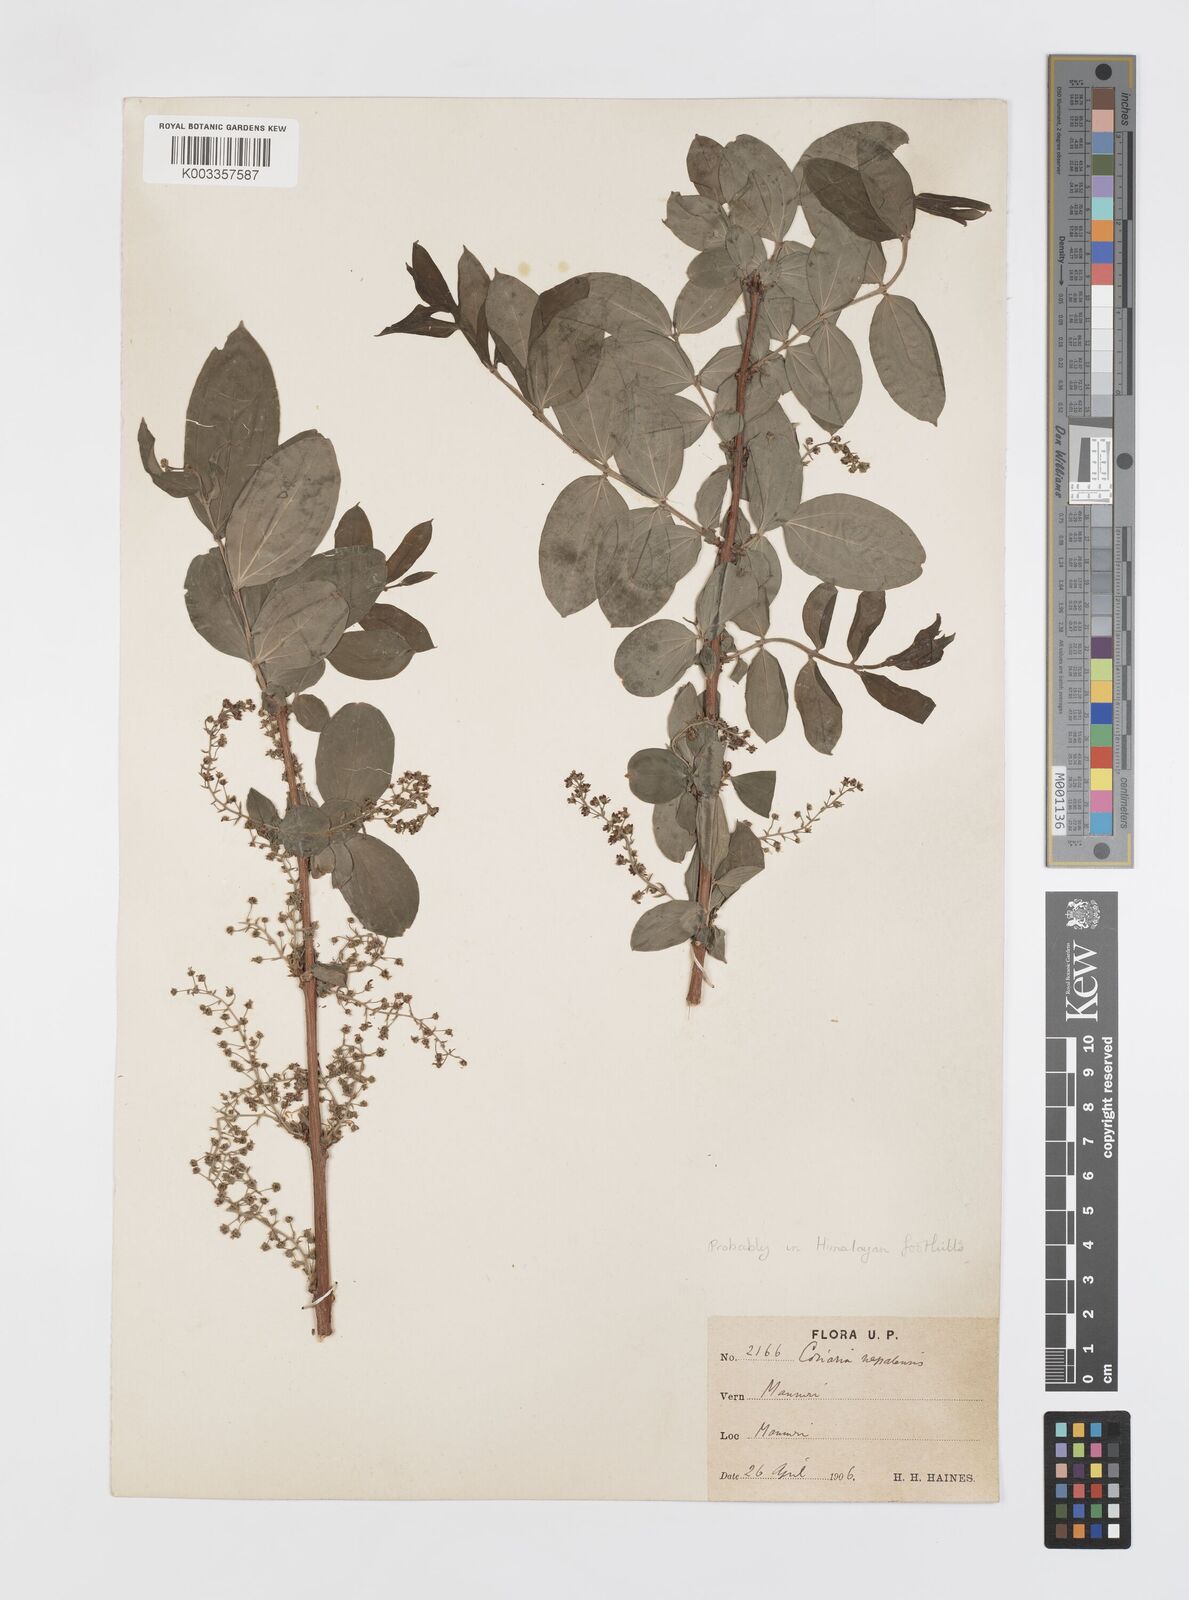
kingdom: Plantae
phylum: Tracheophyta
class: Magnoliopsida
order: Cucurbitales
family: Coriariaceae
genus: Coriaria
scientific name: Coriaria napalensis
